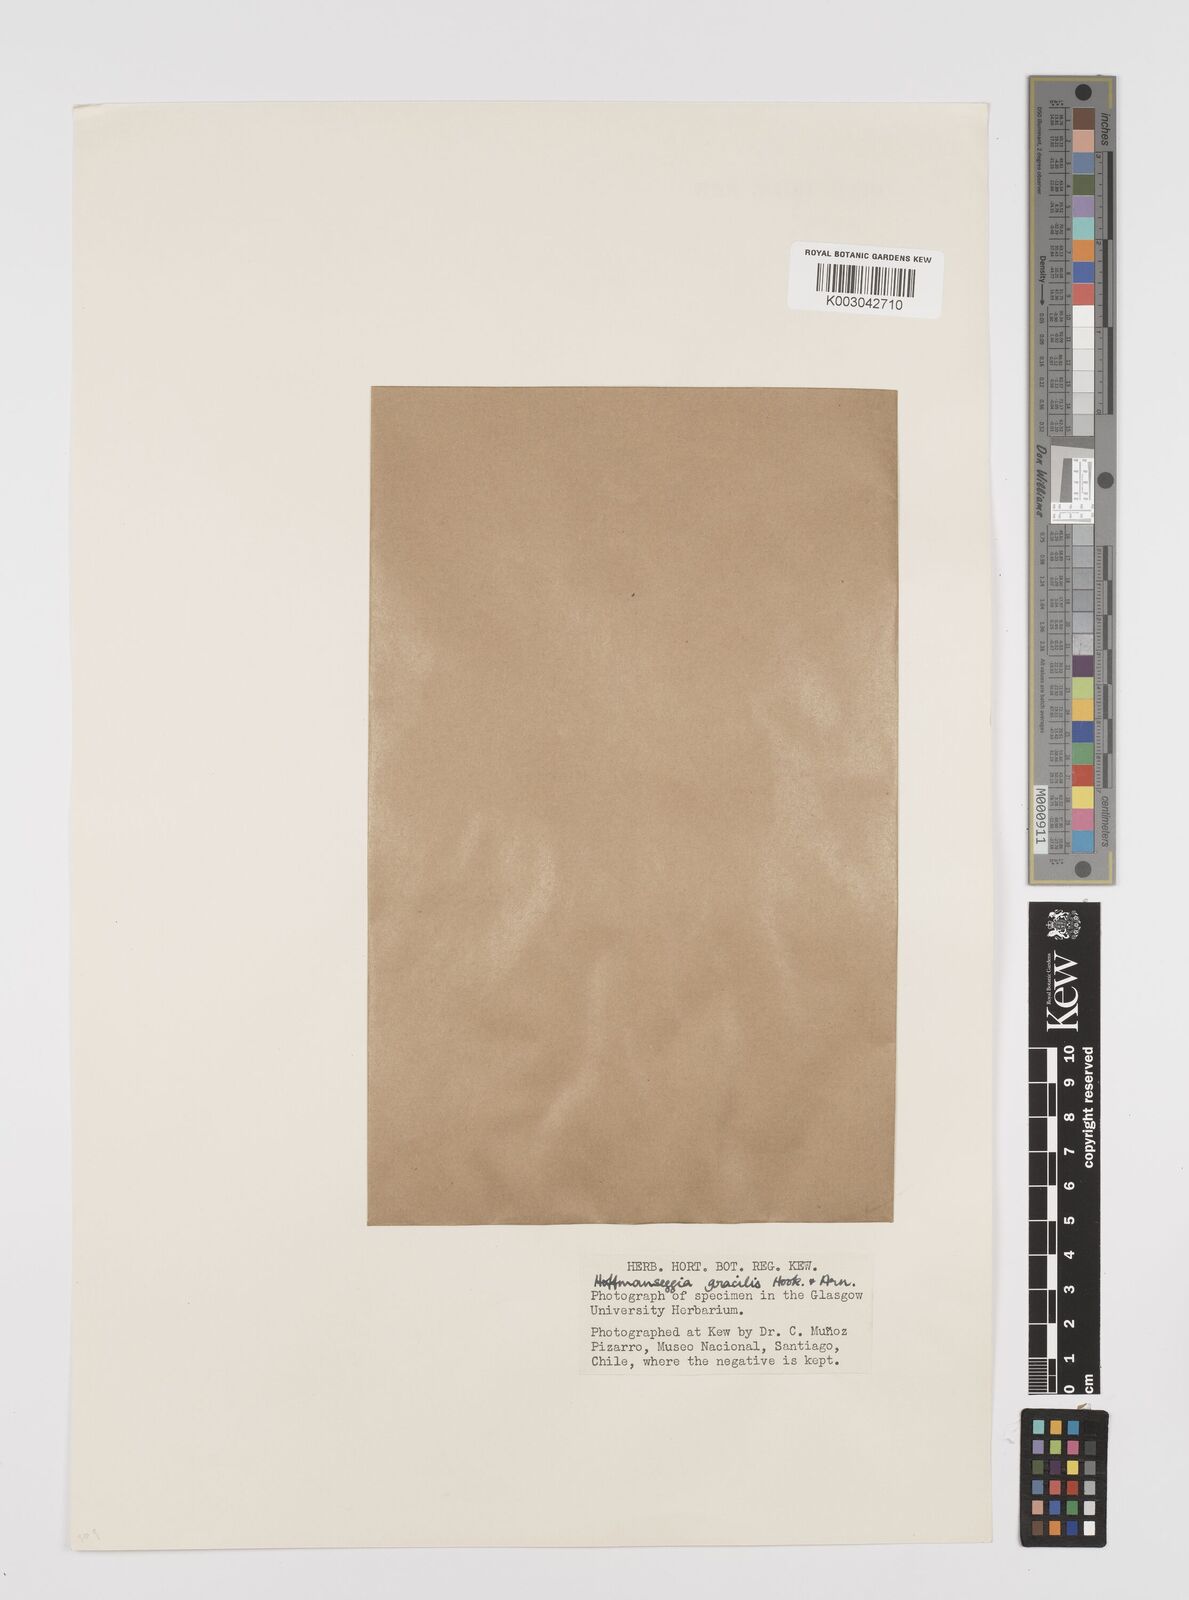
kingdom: Plantae
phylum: Tracheophyta
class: Magnoliopsida
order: Fabales
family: Fabaceae
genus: Hoffmannseggia
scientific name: Hoffmannseggia prostrata
